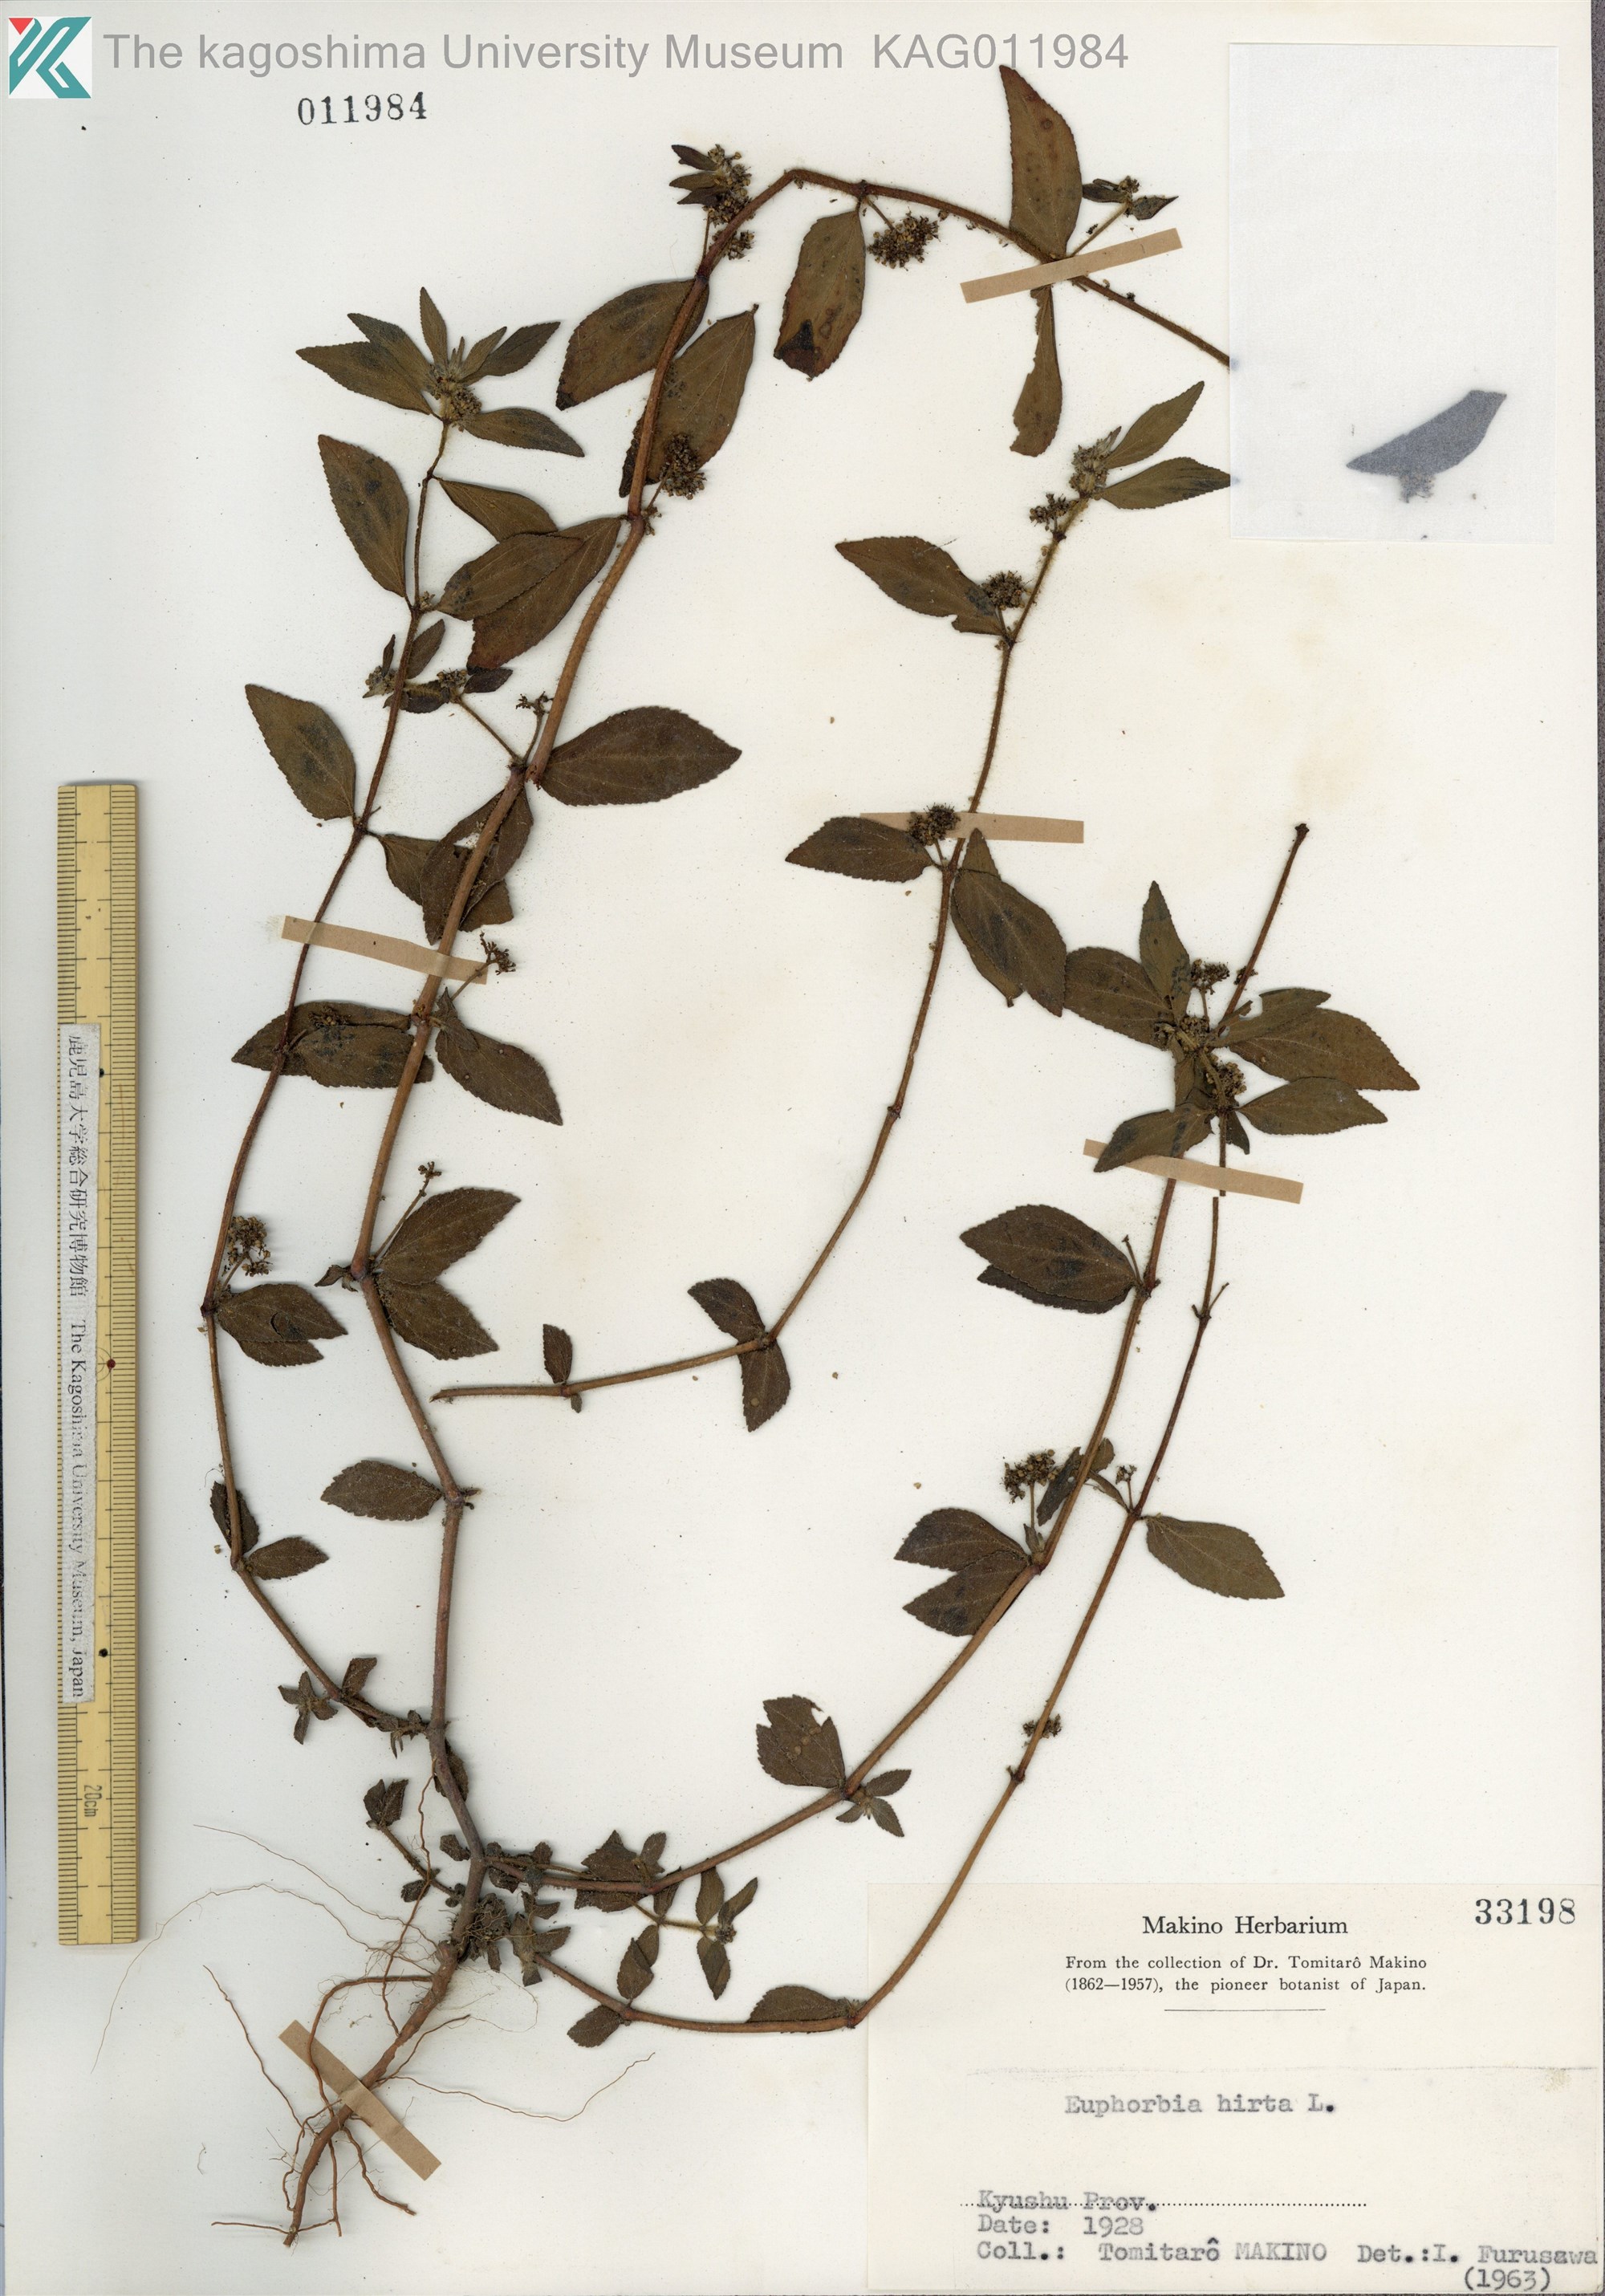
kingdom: Plantae
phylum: Tracheophyta
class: Magnoliopsida
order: Malpighiales
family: Euphorbiaceae
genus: Euphorbia
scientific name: Euphorbia hirta
